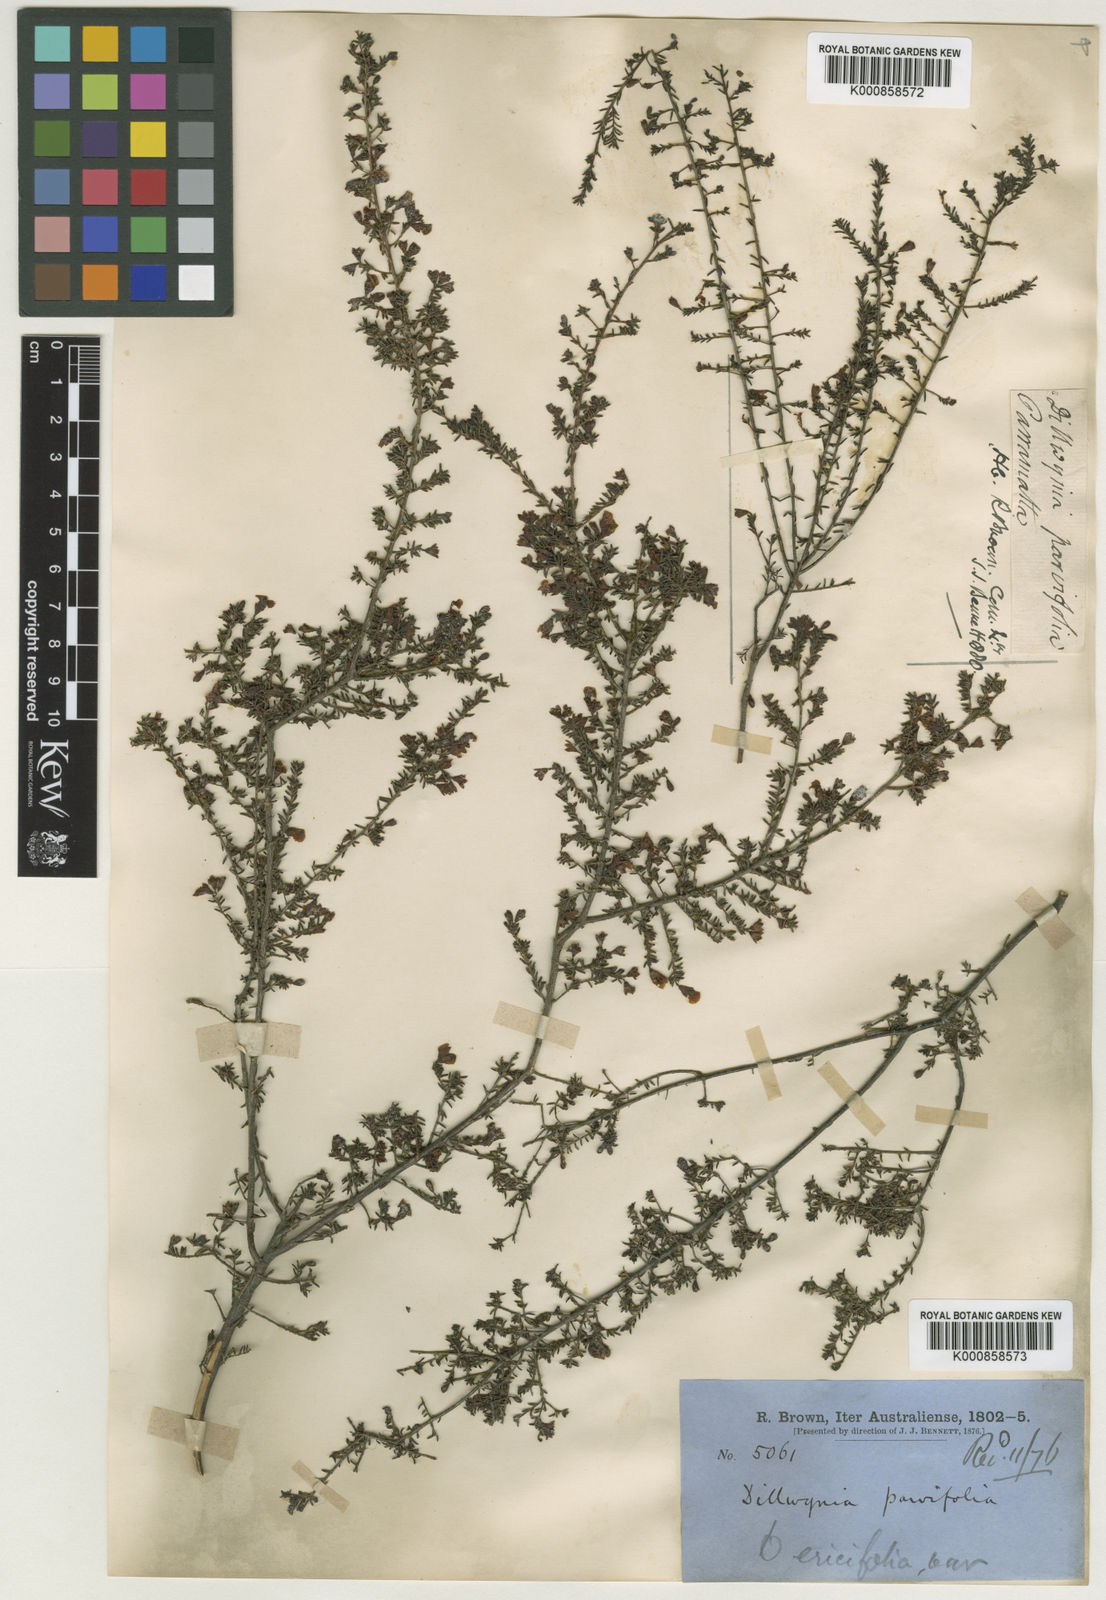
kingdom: Plantae
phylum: Tracheophyta
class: Magnoliopsida
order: Fabales
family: Fabaceae
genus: Dillwynia
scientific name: Dillwynia
